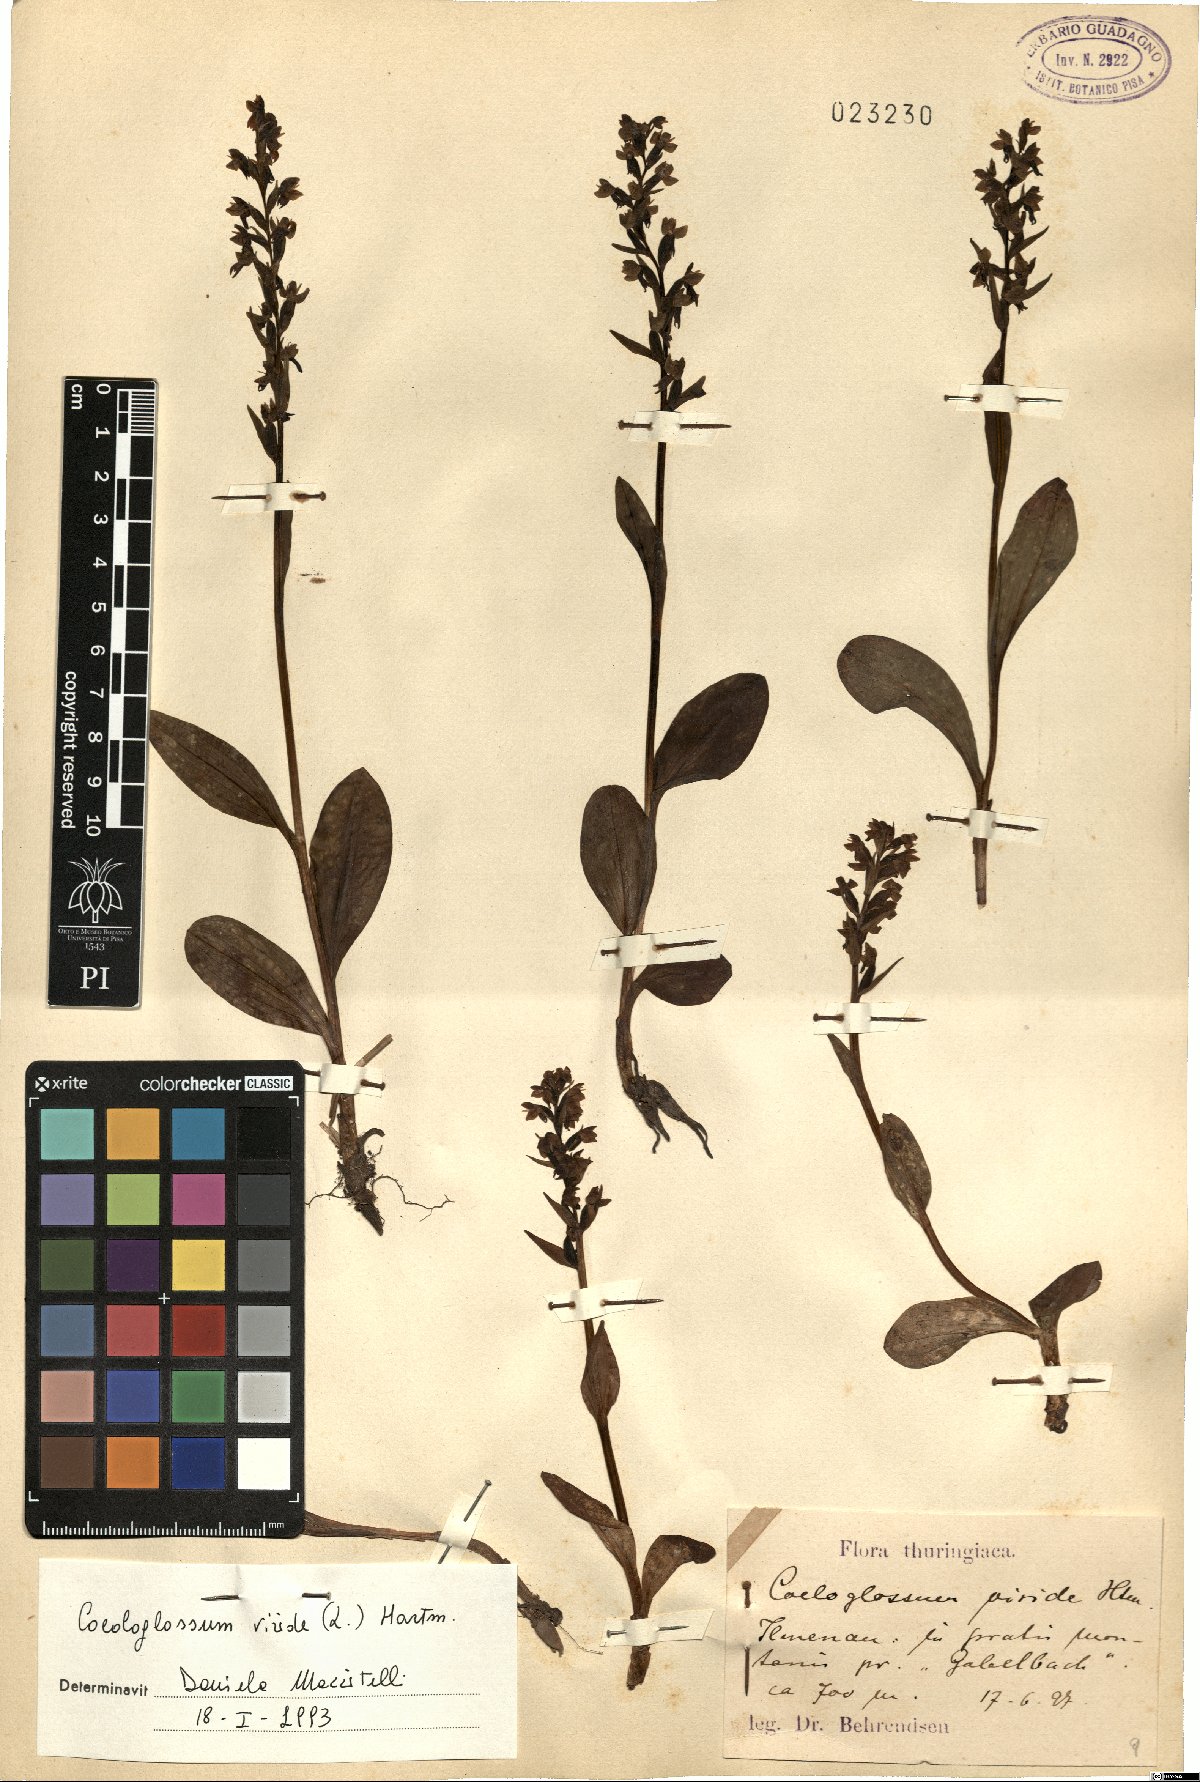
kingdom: Plantae
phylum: Tracheophyta
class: Liliopsida
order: Asparagales
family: Orchidaceae
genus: Dactylorhiza
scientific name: Dactylorhiza viridis
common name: Longbract frog orchid
